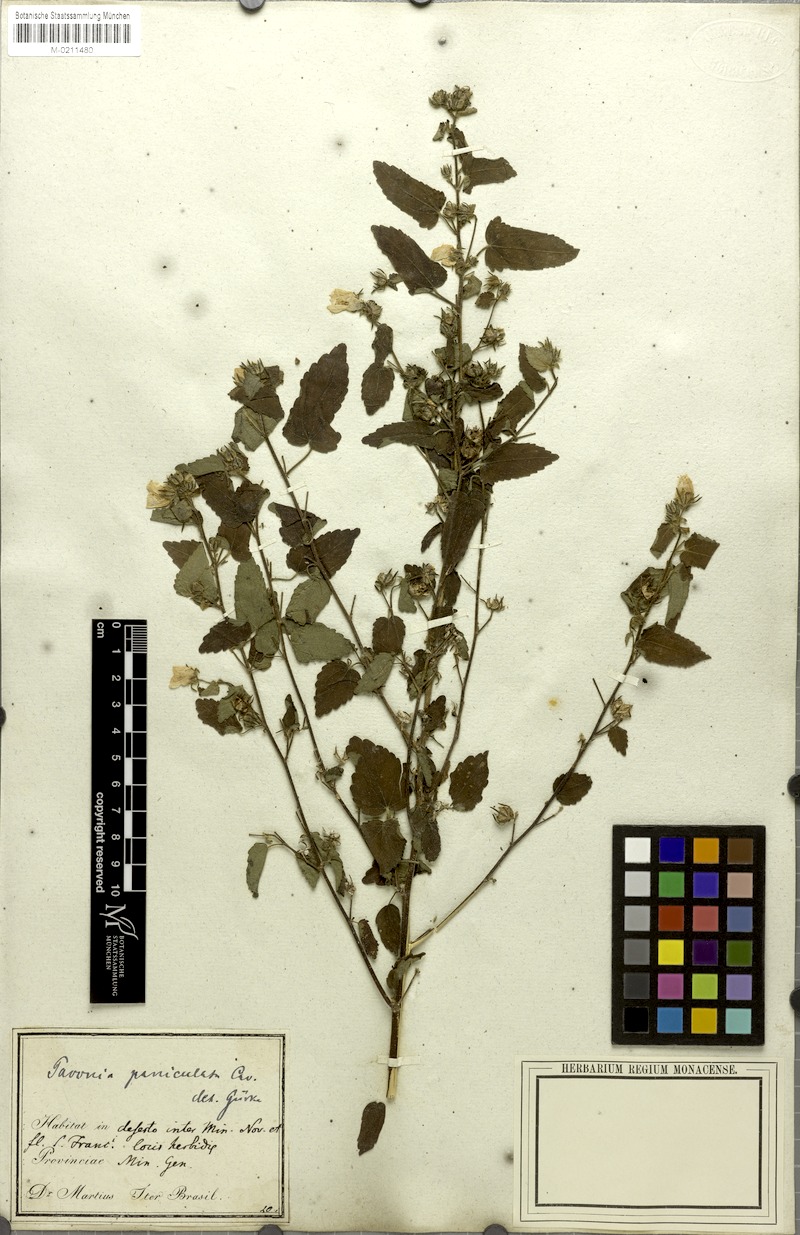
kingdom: Plantae
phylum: Tracheophyta
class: Magnoliopsida
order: Malvales
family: Malvaceae
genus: Pavonia
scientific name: Pavonia paniculata
